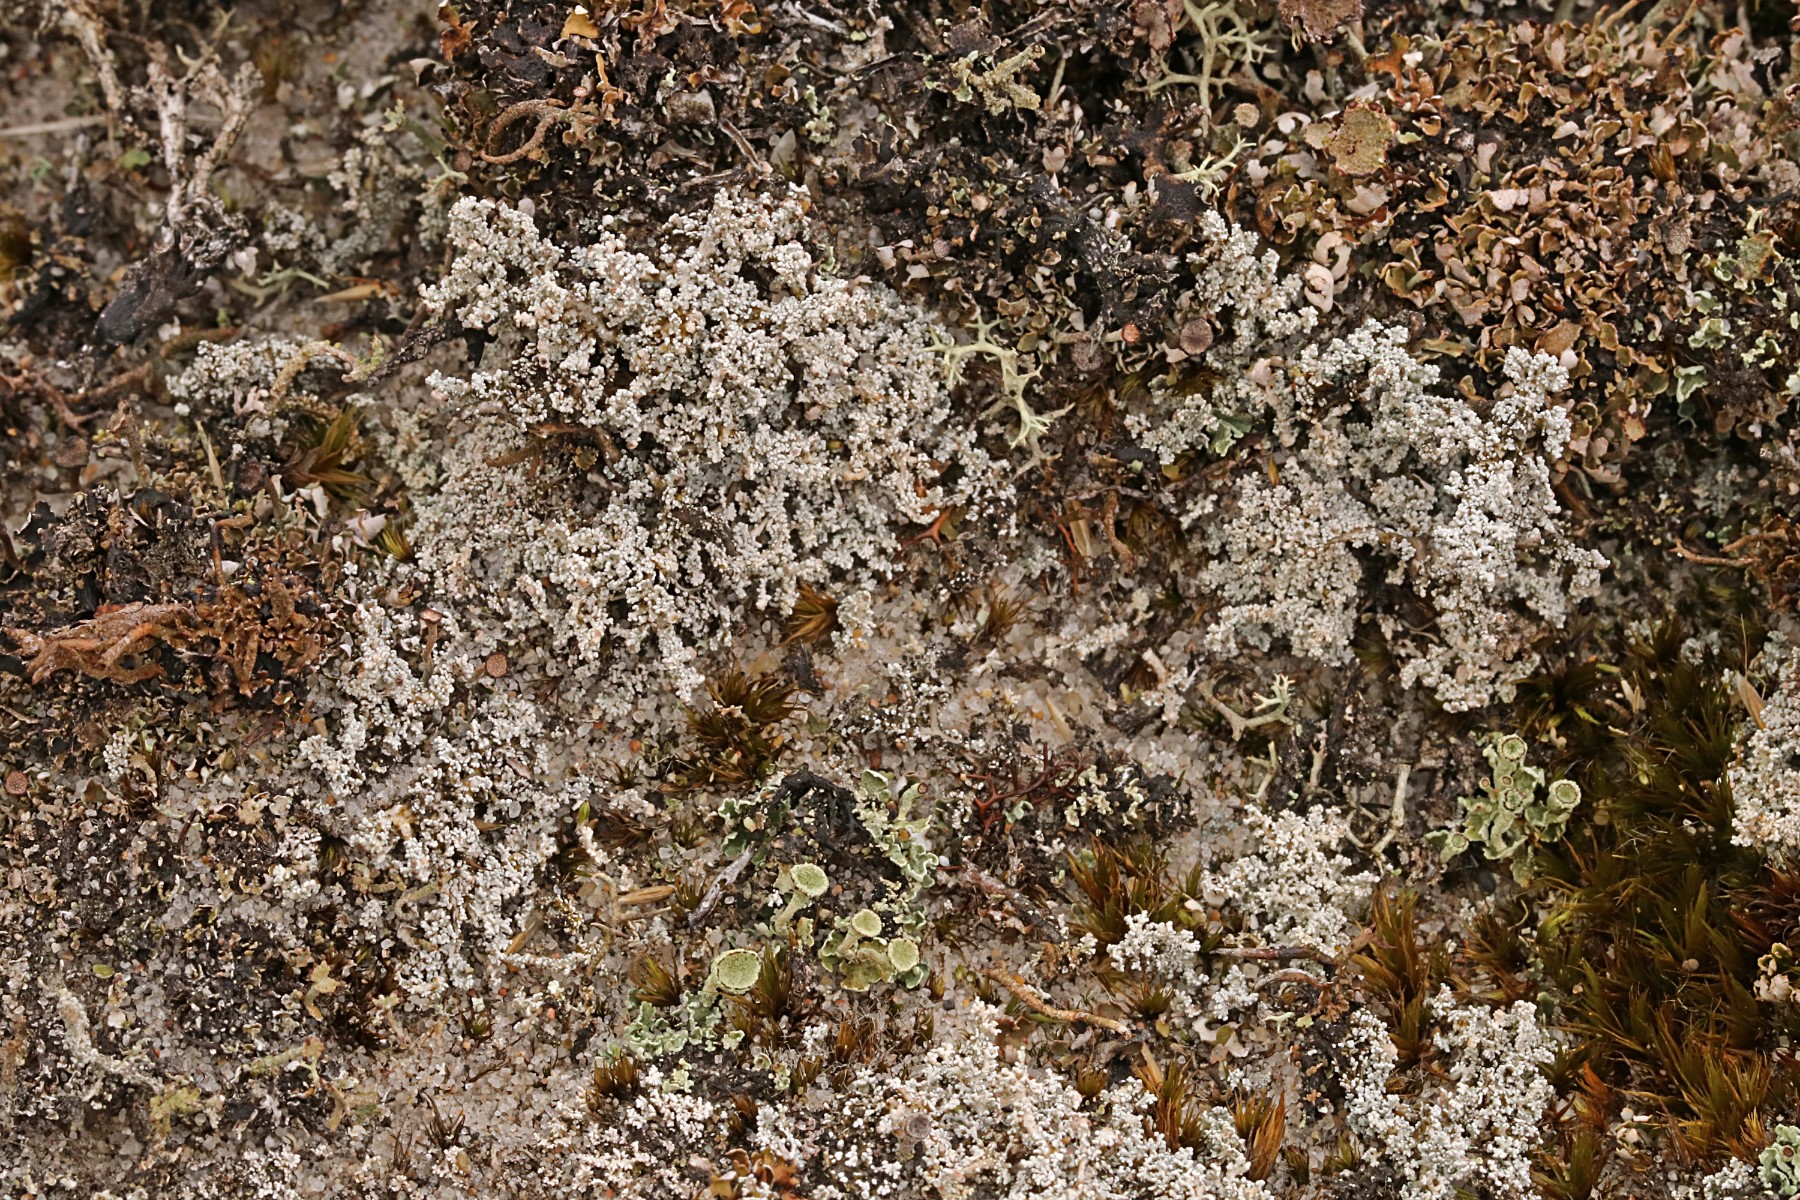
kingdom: Fungi
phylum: Ascomycota
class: Lecanoromycetes
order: Lecanorales
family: Stereocaulaceae
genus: Stereocaulon
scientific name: Stereocaulon saxatile
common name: klit-korallav
